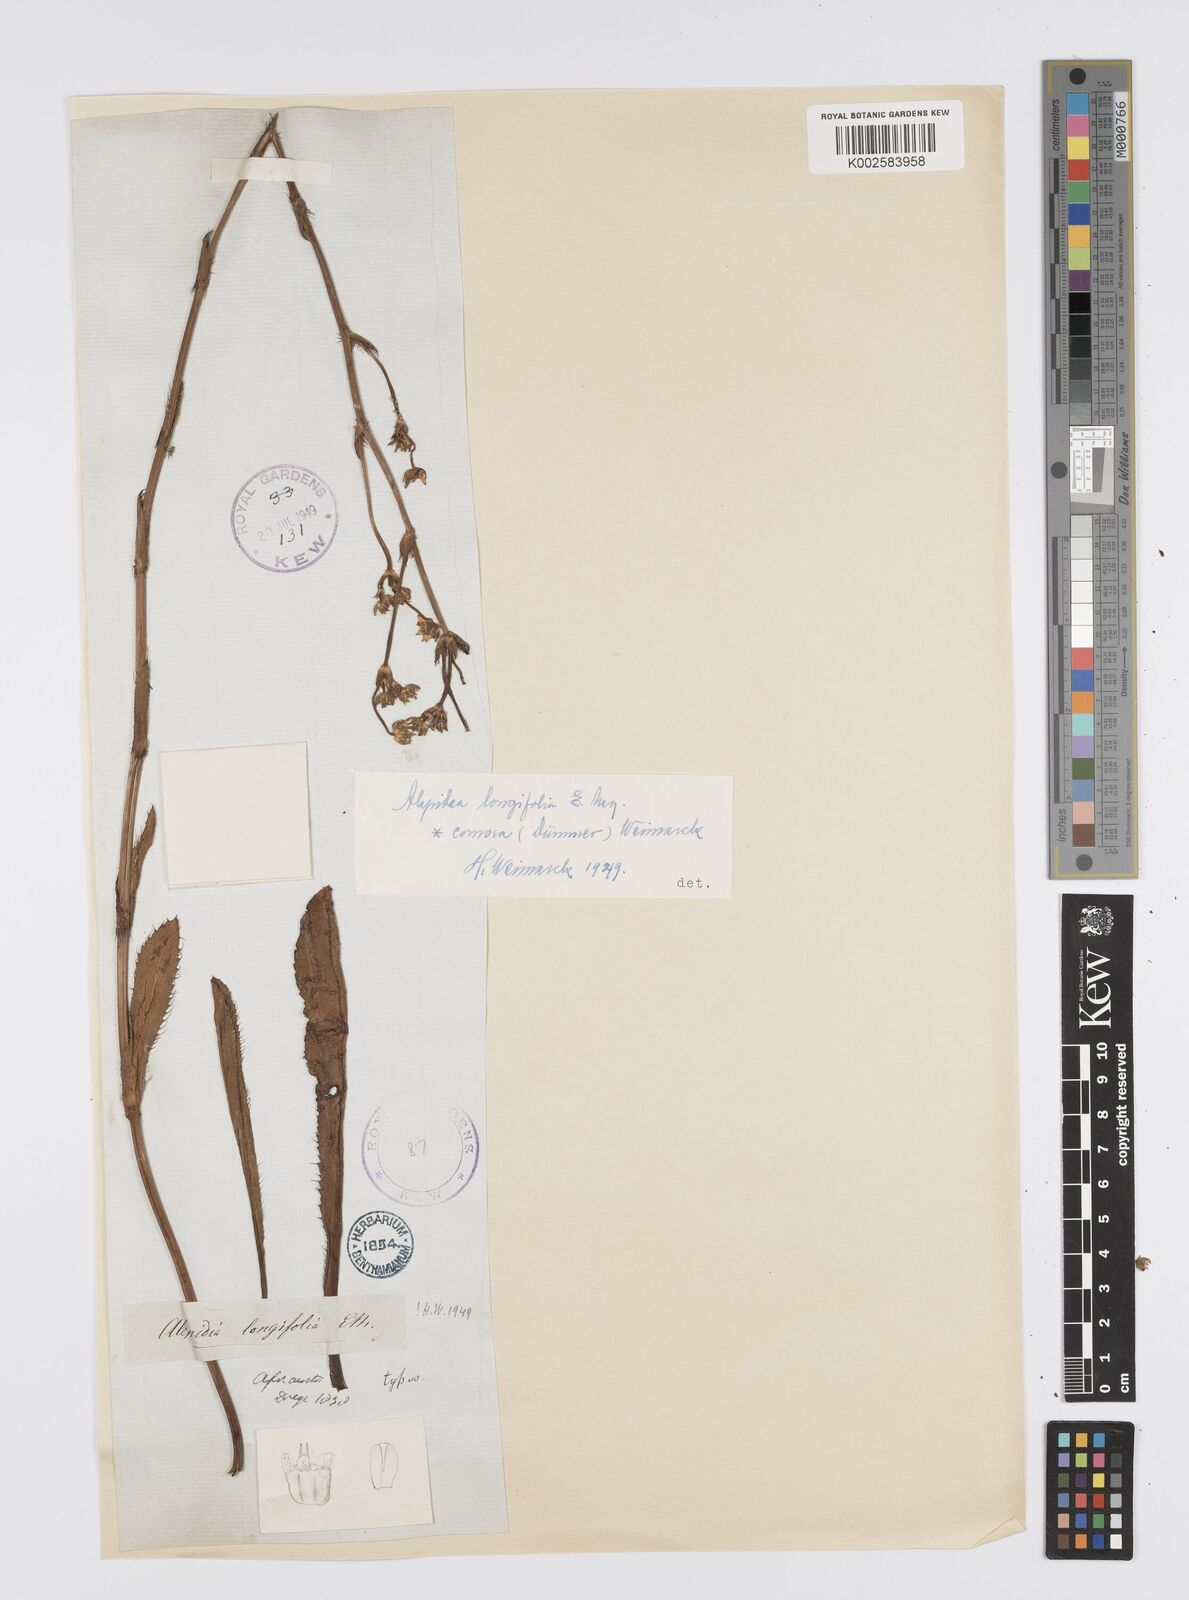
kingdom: Plantae
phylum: Tracheophyta
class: Magnoliopsida
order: Apiales
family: Apiaceae
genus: Alepidea
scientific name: Alepidea
